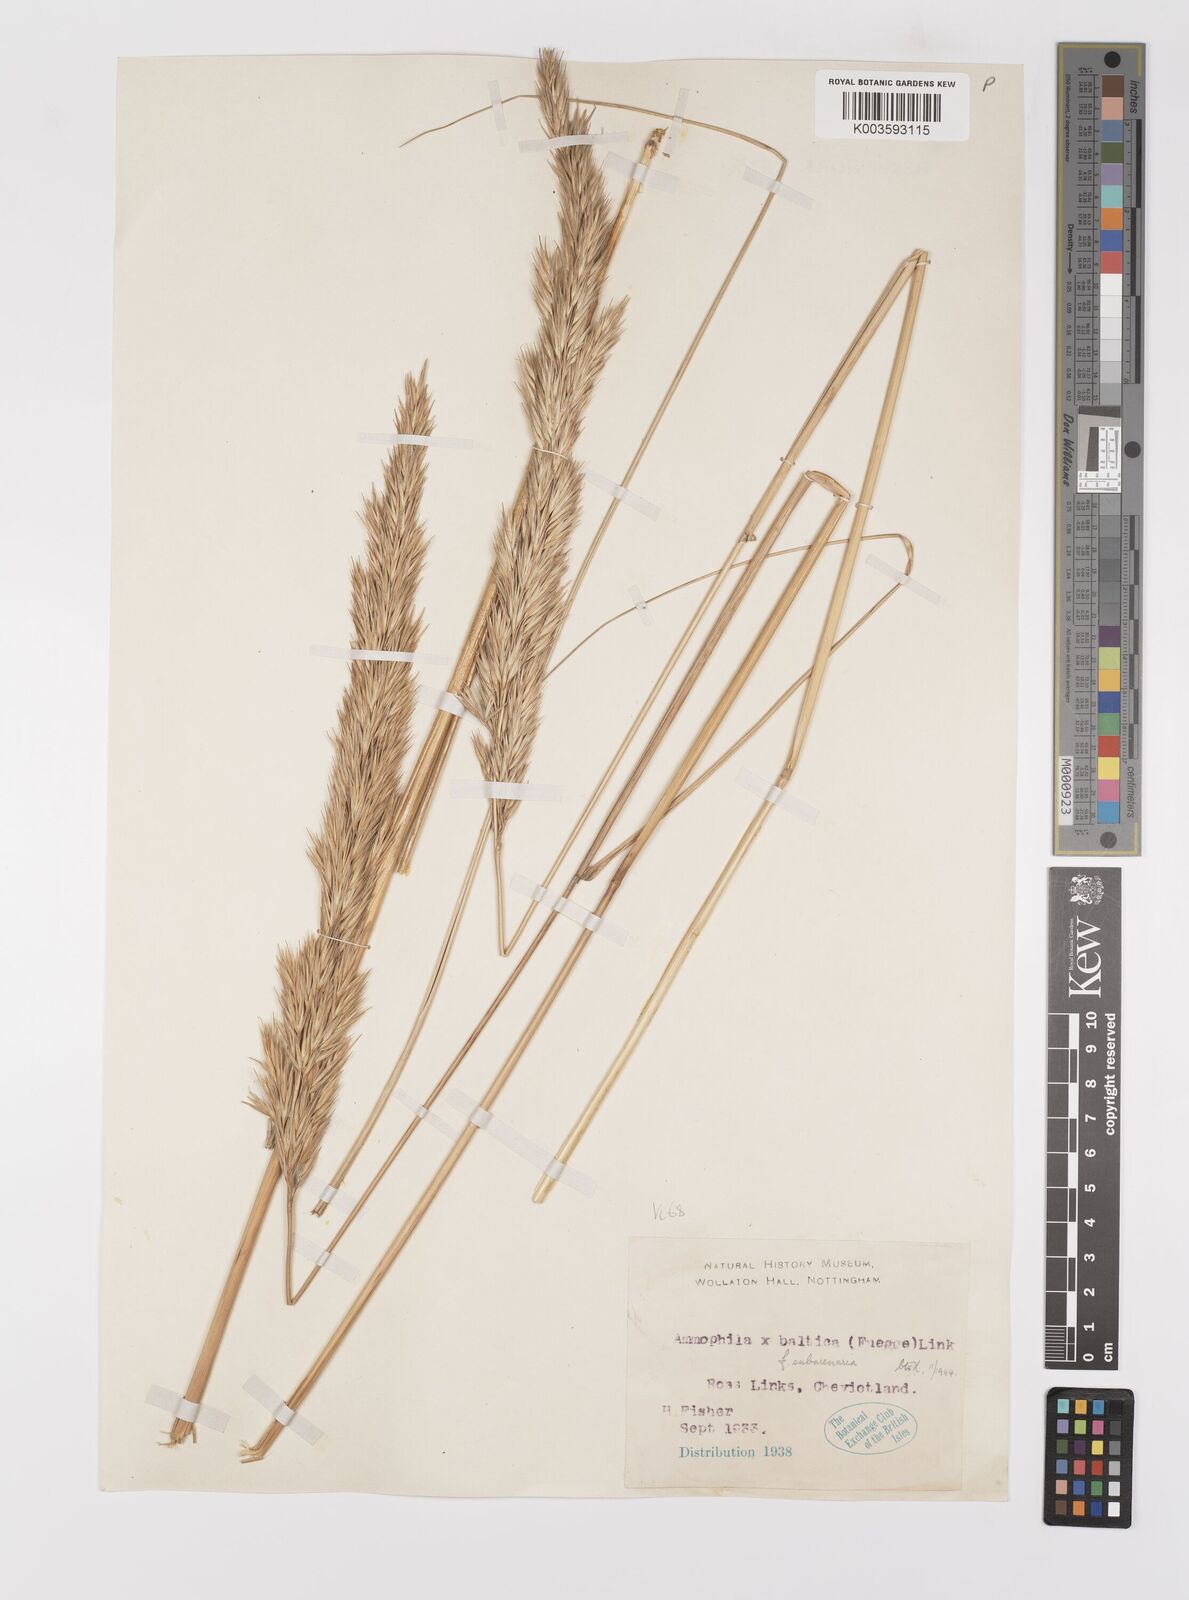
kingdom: Plantae
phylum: Tracheophyta
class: Liliopsida
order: Poales
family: Poaceae
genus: Calamagrostis
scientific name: Calamagrostis baltica
